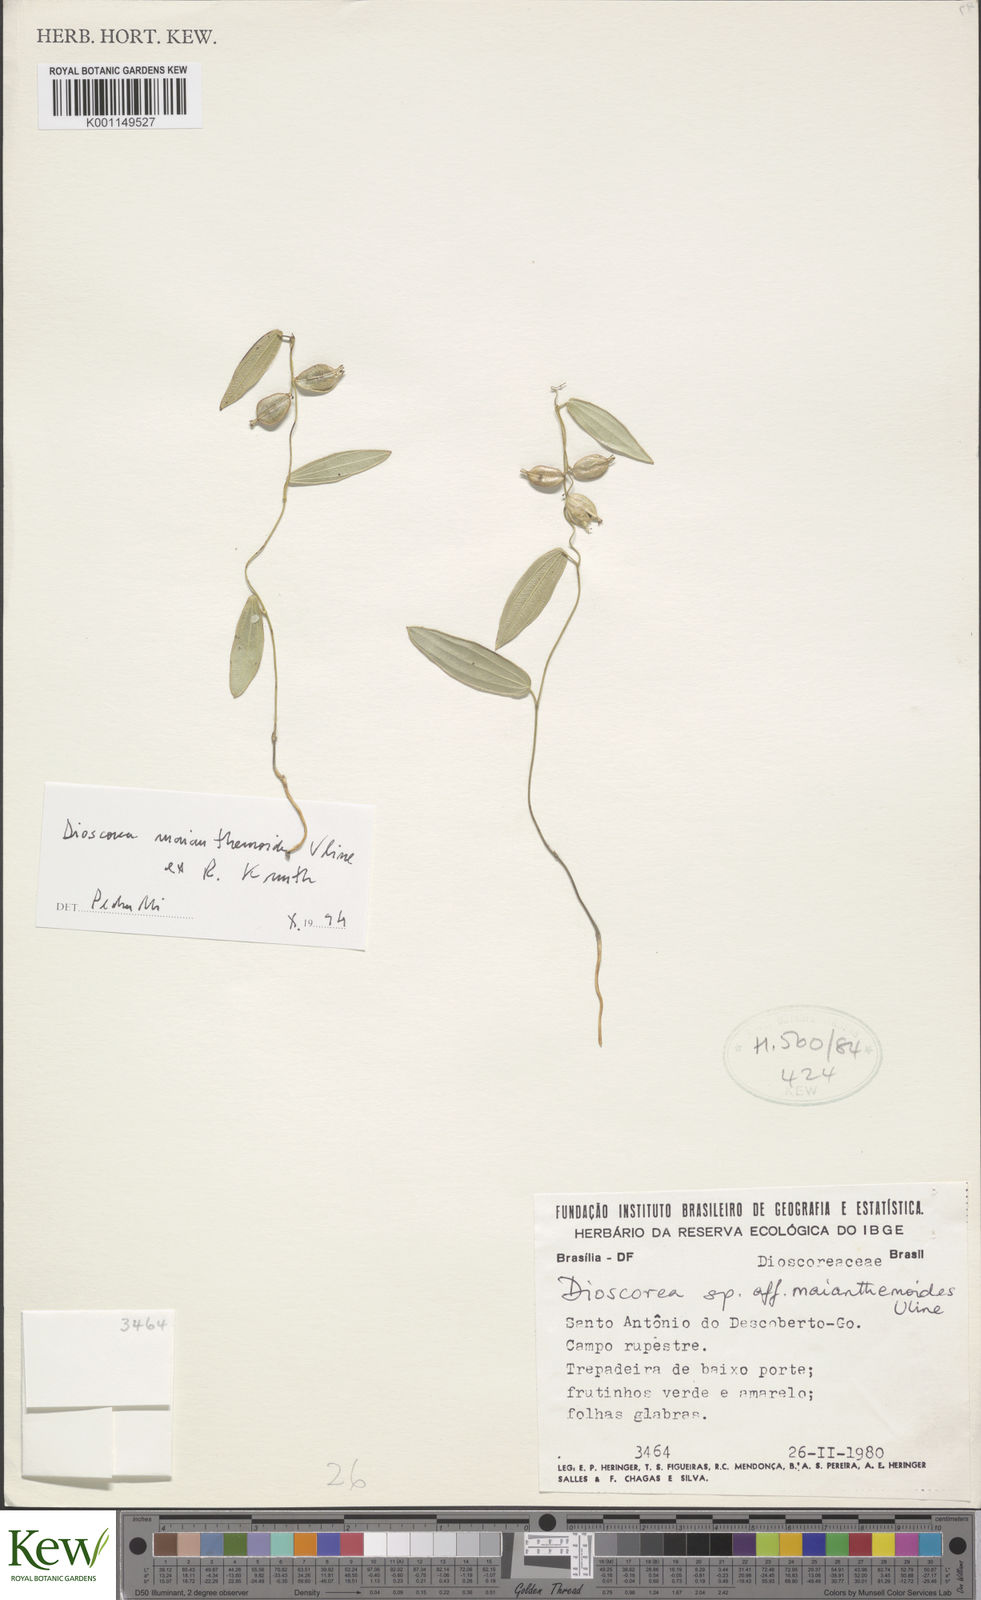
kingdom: Plantae
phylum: Tracheophyta
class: Liliopsida
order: Dioscoreales
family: Dioscoreaceae
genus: Dioscorea
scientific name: Dioscorea maianthemoides
